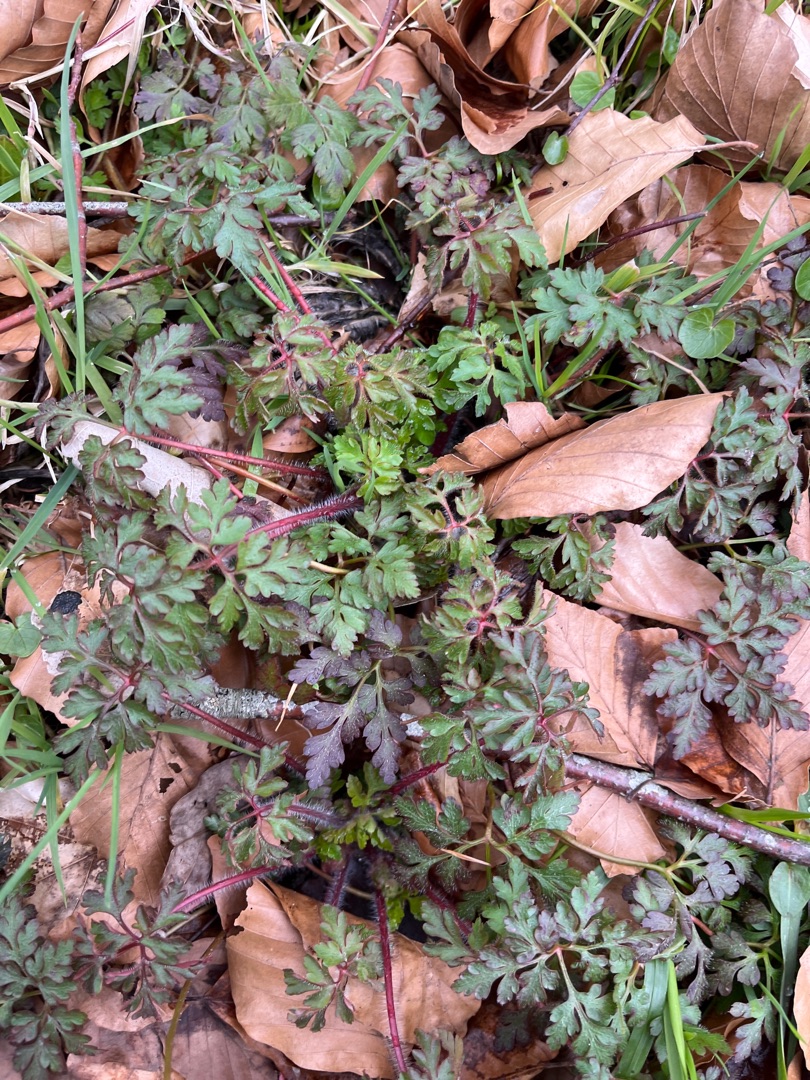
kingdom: Plantae
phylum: Tracheophyta
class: Magnoliopsida
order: Geraniales
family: Geraniaceae
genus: Geranium
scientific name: Geranium robertianum
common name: Stinkende storkenæb
